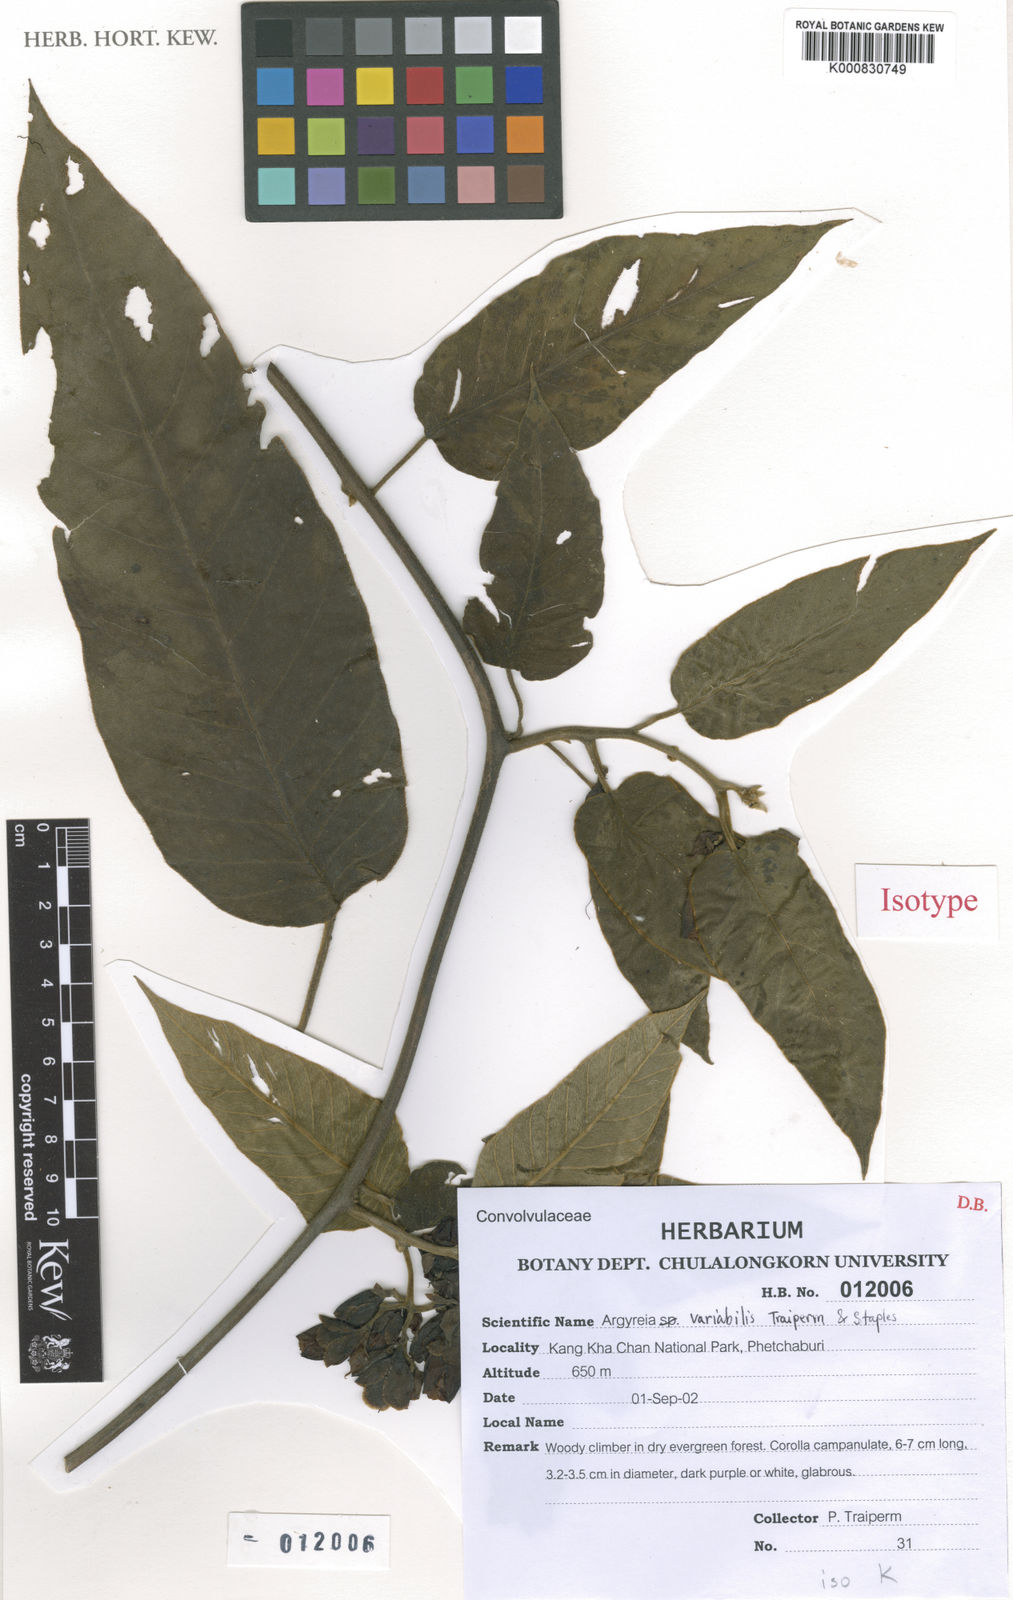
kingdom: Plantae
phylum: Tracheophyta
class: Magnoliopsida
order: Solanales
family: Convolvulaceae
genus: Argyreia
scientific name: Argyreia variabilis
